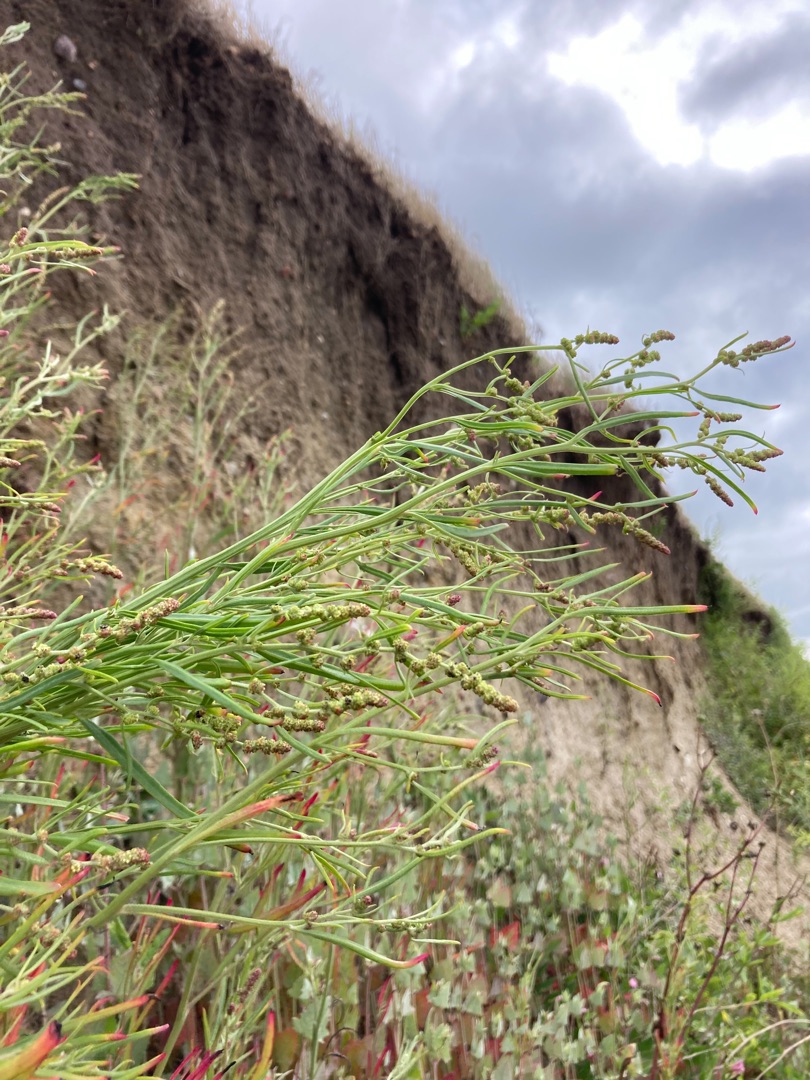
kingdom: Plantae
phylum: Tracheophyta
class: Magnoliopsida
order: Caryophyllales
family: Amaranthaceae
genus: Atriplex
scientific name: Atriplex littoralis
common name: Strand-mælde
